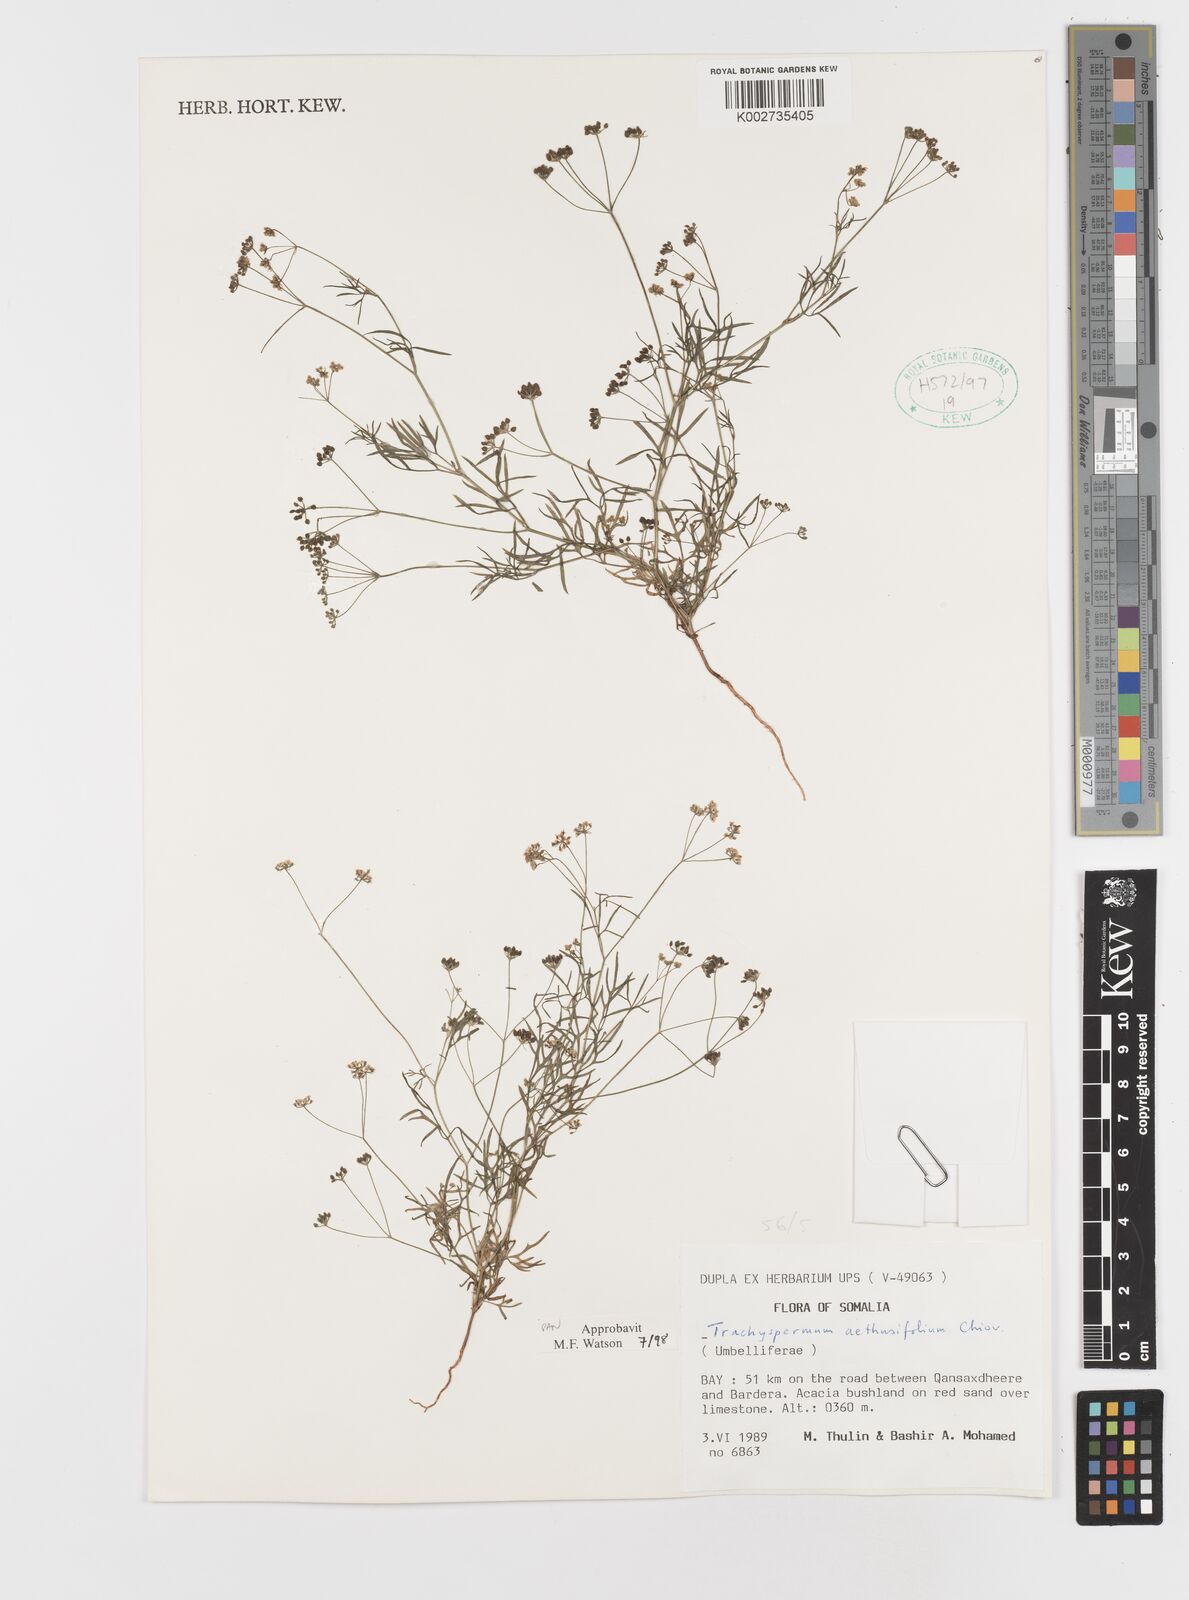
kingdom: Plantae
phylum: Tracheophyta
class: Magnoliopsida
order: Apiales
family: Apiaceae
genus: Trachyspermum
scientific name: Trachyspermum pimpinelloides
